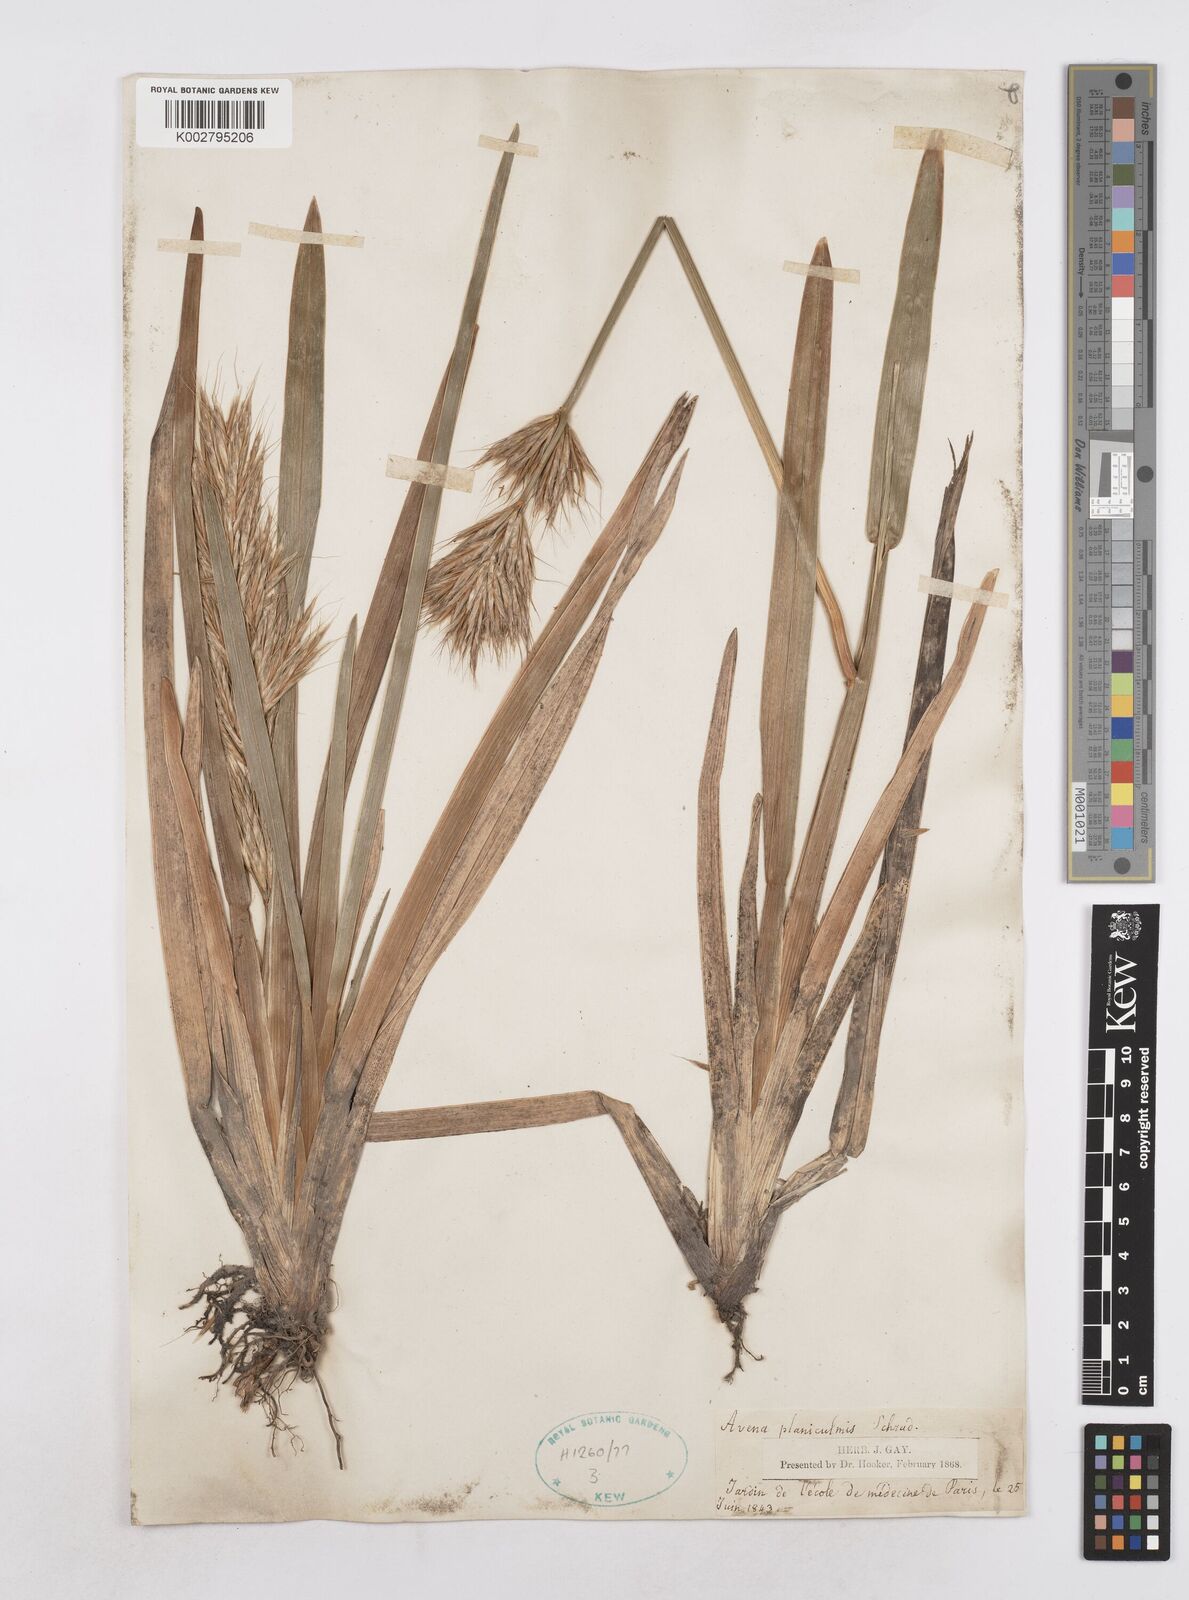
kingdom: Plantae
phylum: Tracheophyta
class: Liliopsida
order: Poales
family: Poaceae
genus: Helictochloa
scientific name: Helictochloa planiculmis
